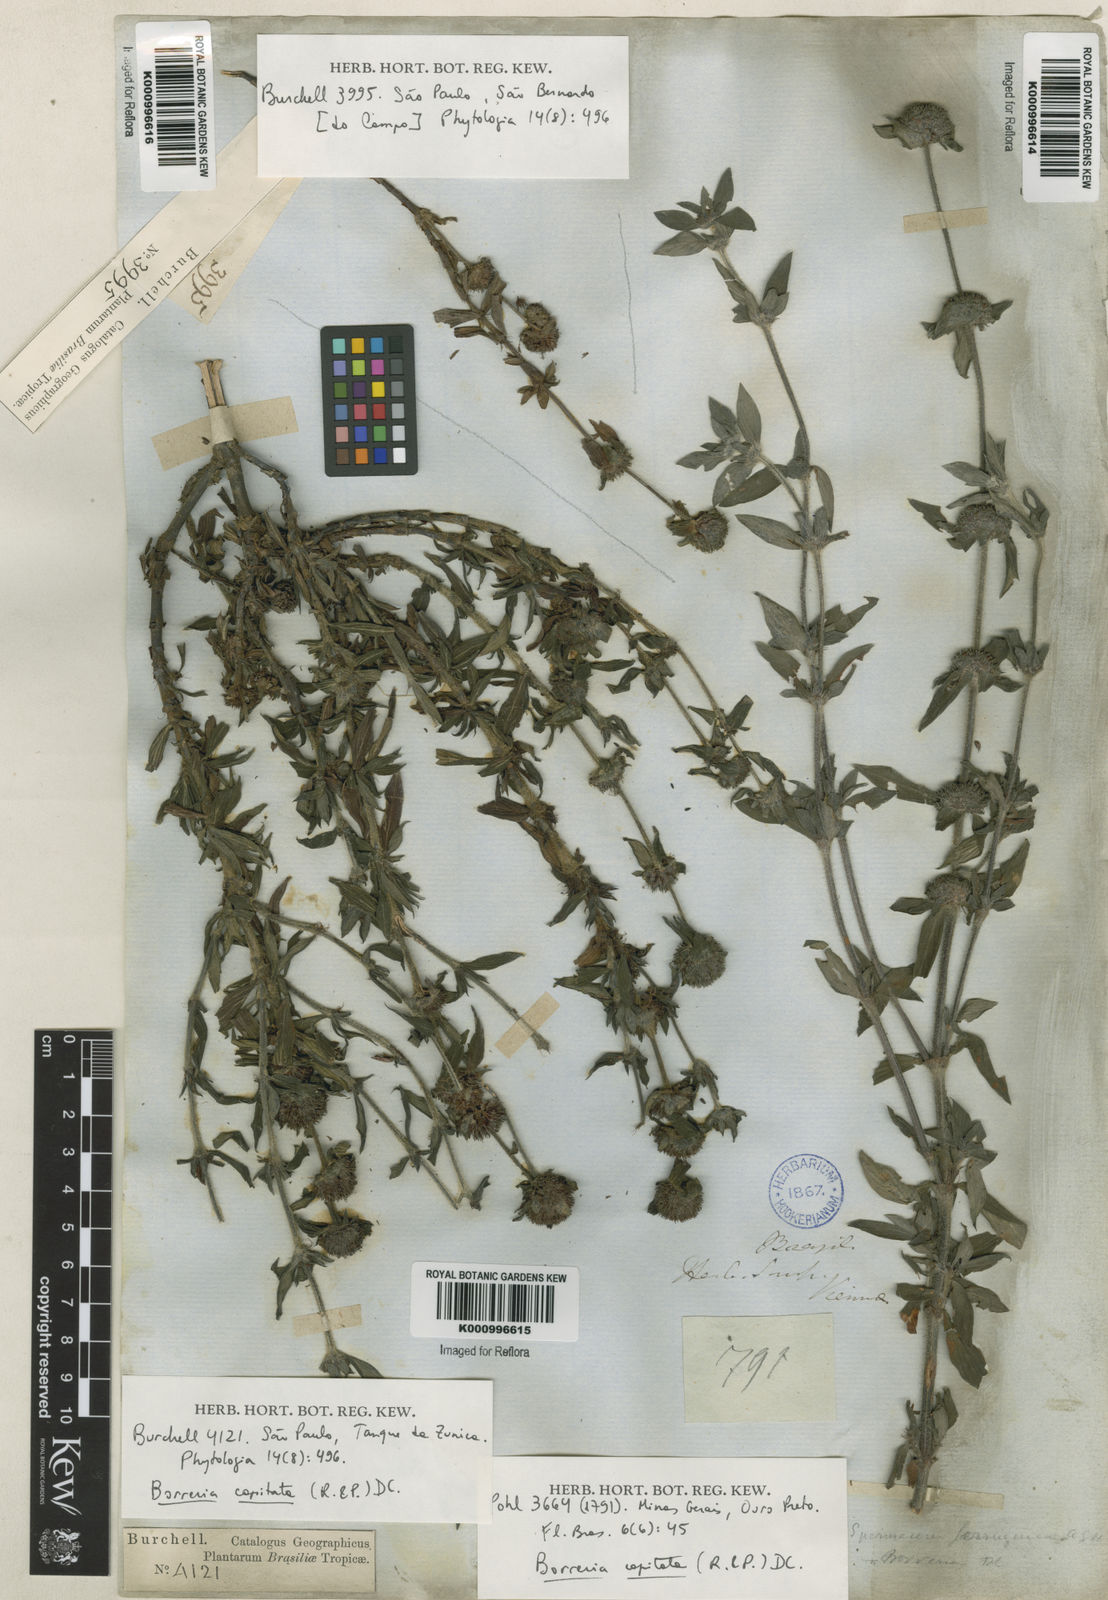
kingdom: Plantae
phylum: Tracheophyta
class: Magnoliopsida
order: Gentianales
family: Rubiaceae
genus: Spermacoce
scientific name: Spermacoce capitata
